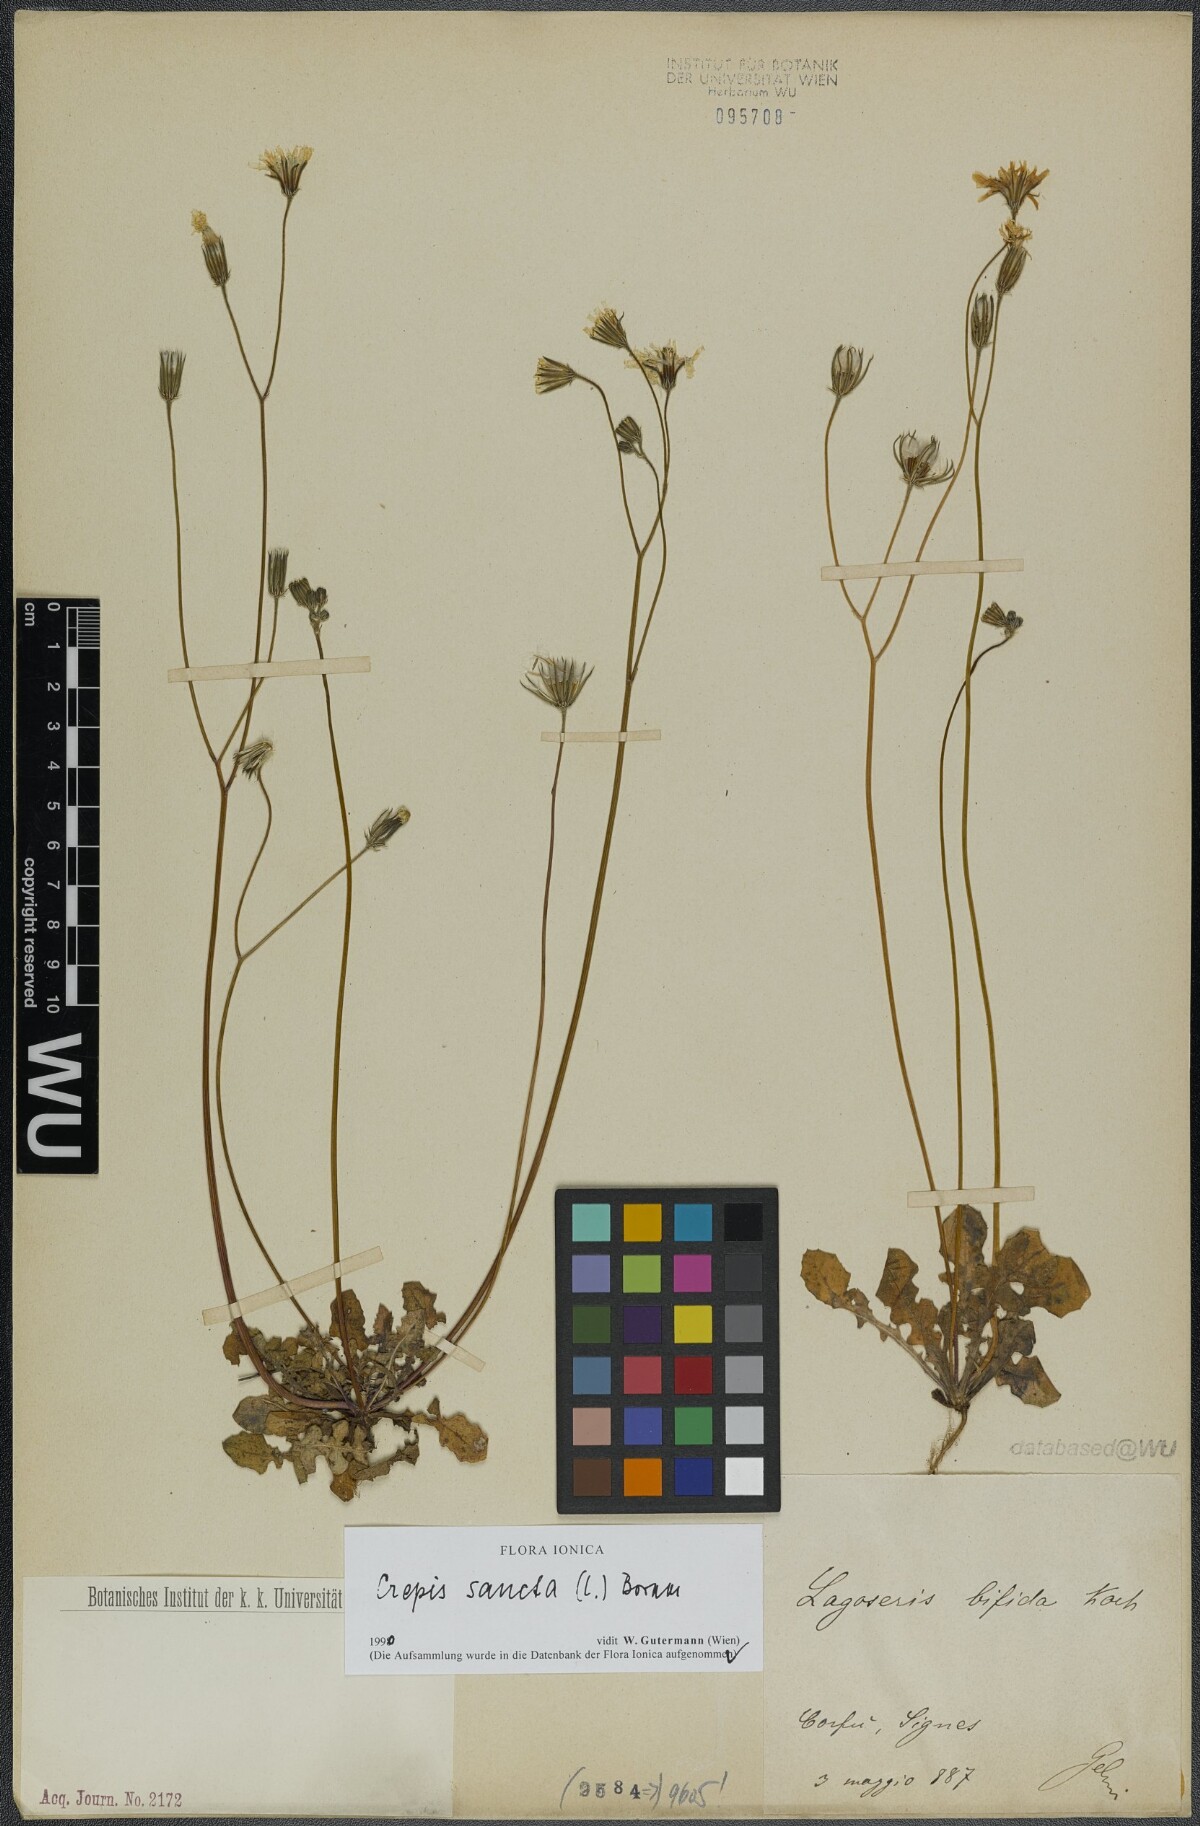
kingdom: Plantae
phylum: Tracheophyta
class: Magnoliopsida
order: Asterales
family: Asteraceae
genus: Crepis
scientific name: Crepis sancta
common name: Hawk's-beard
